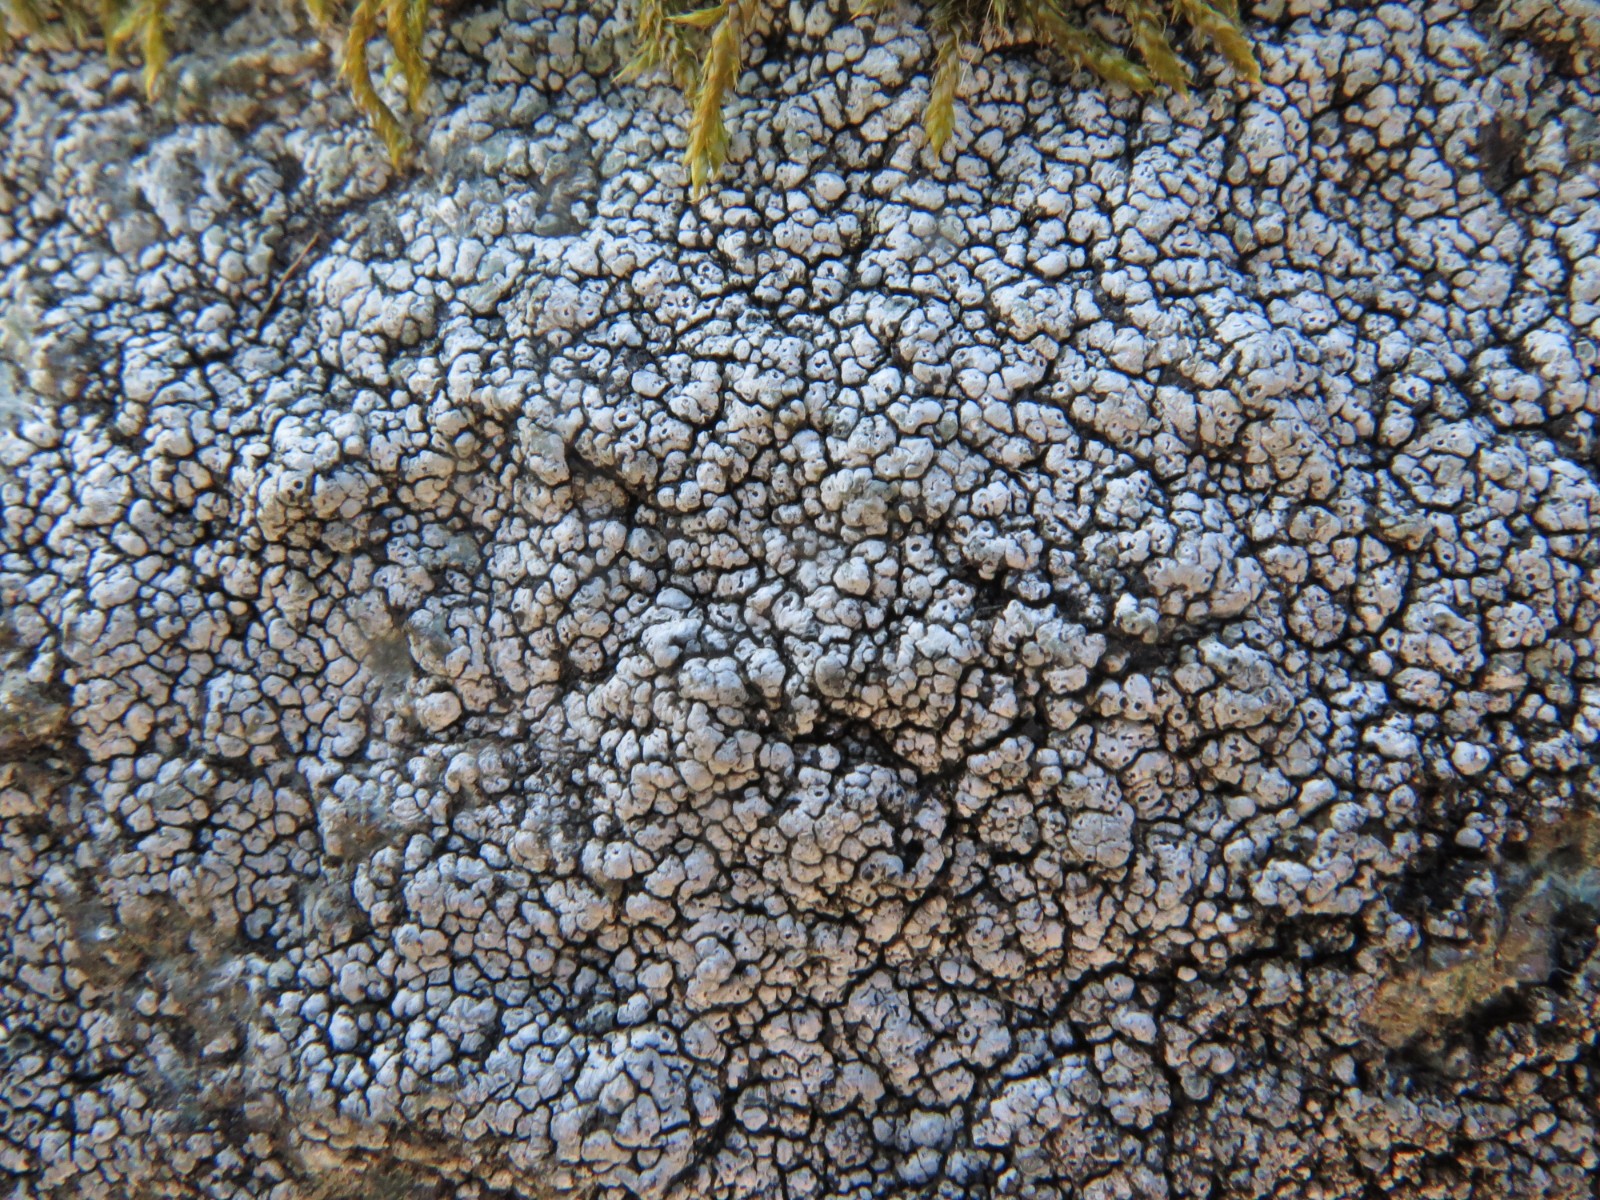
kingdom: Fungi
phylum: Ascomycota
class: Lecanoromycetes
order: Pertusariales
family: Megasporaceae
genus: Circinaria
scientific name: Circinaria caesiocinerea
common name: fuglestens-hulskivelav
